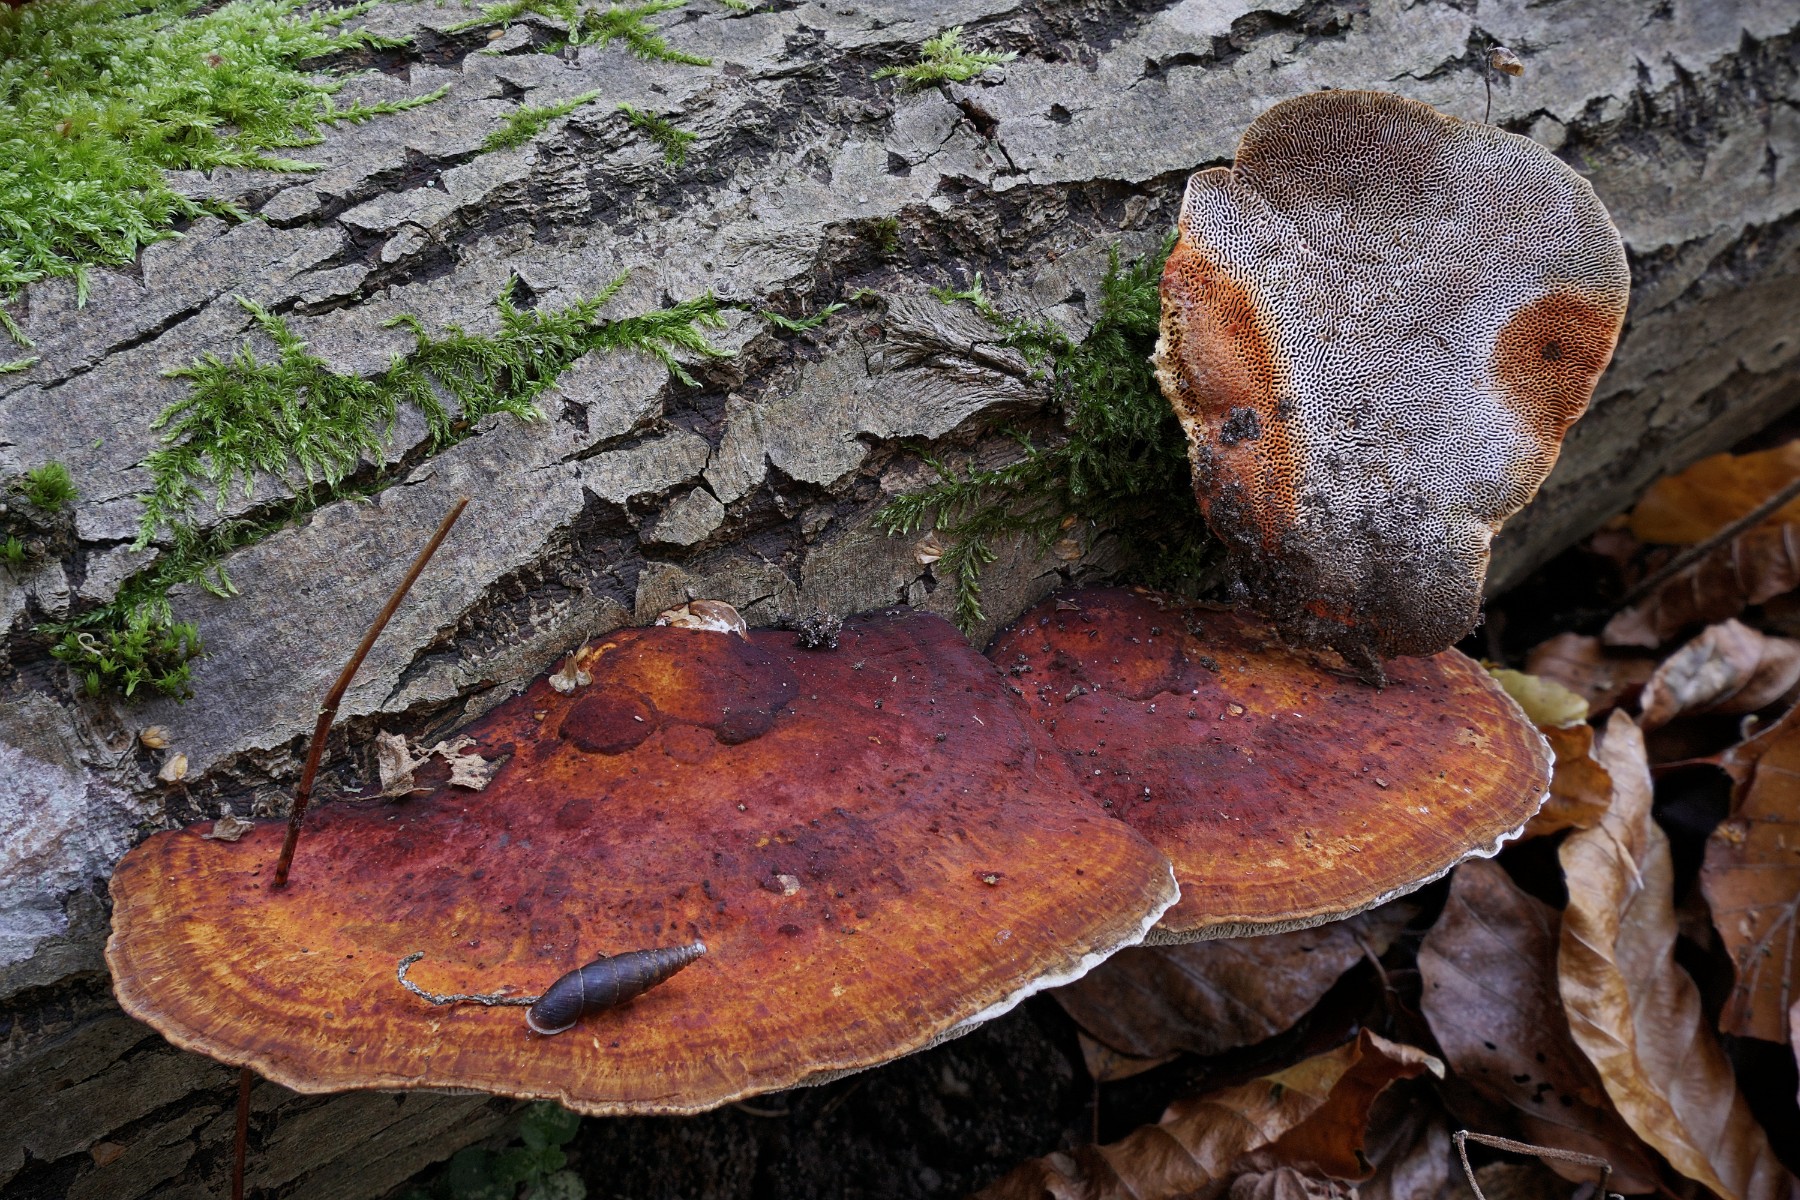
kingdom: Fungi
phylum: Basidiomycota
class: Agaricomycetes
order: Polyporales
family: Polyporaceae
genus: Daedaleopsis
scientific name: Daedaleopsis confragosa
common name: rødmende læderporesvamp
